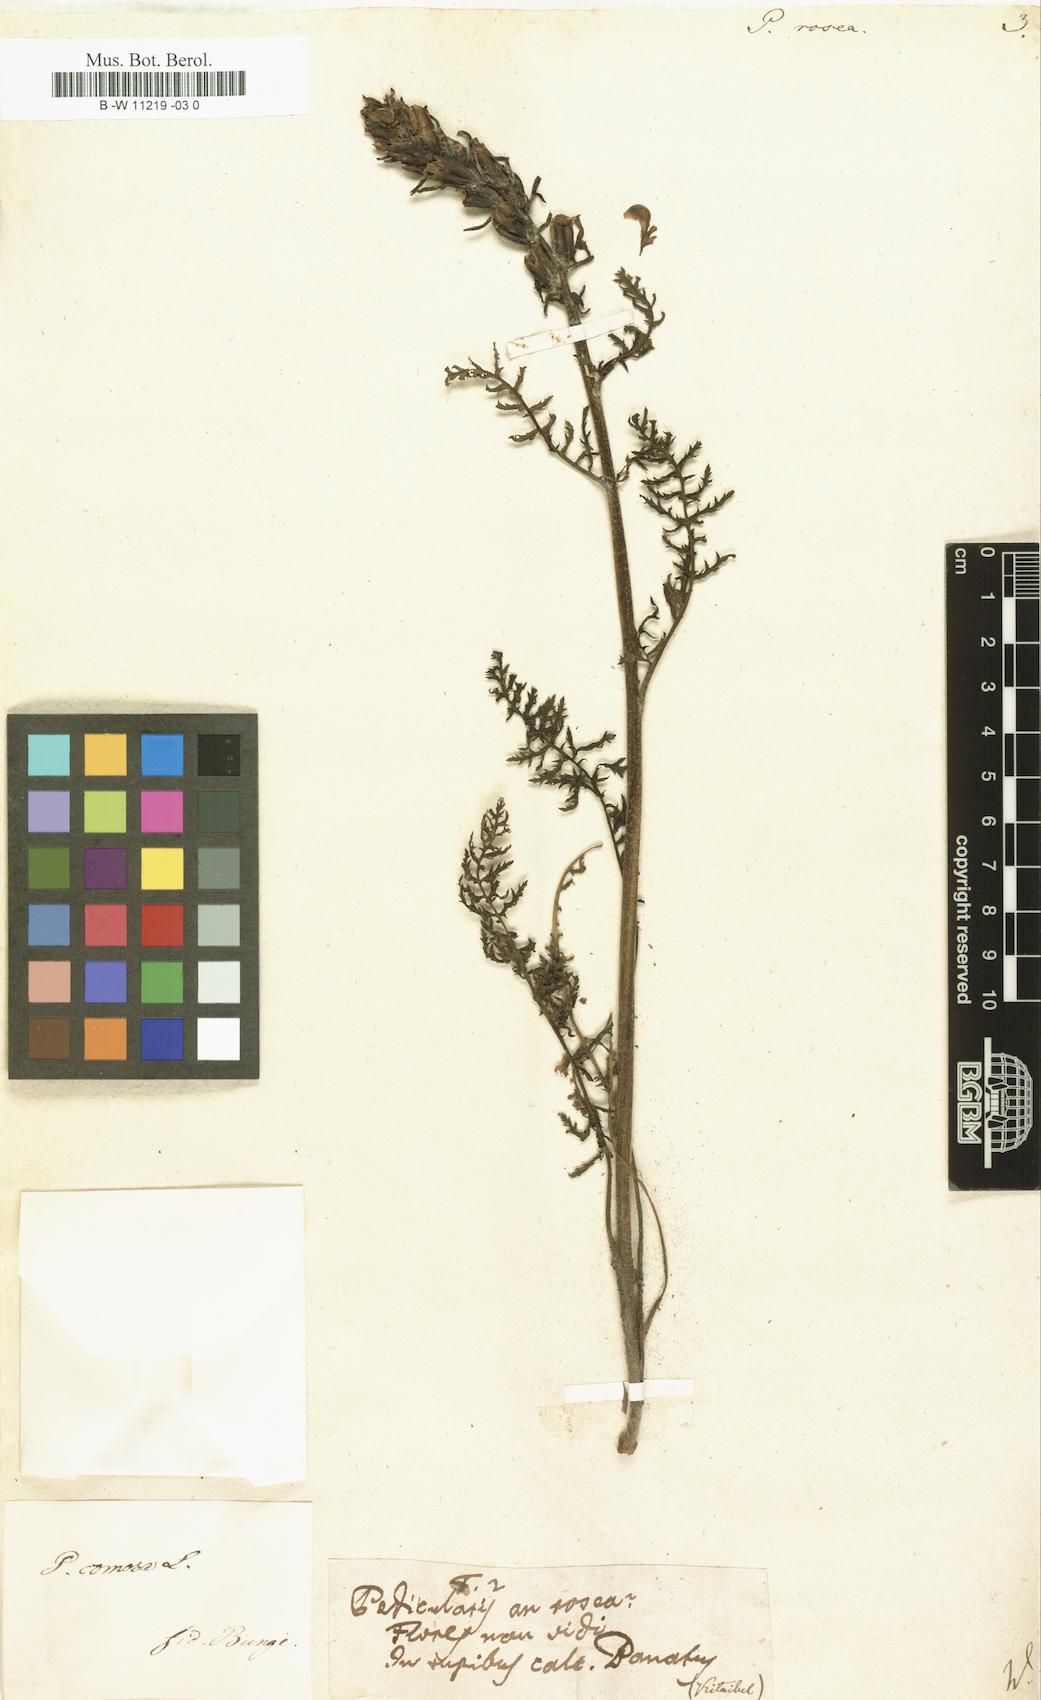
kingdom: Plantae
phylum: Tracheophyta
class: Magnoliopsida
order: Lamiales
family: Orobanchaceae
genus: Pedicularis
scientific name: Pedicularis rosea
